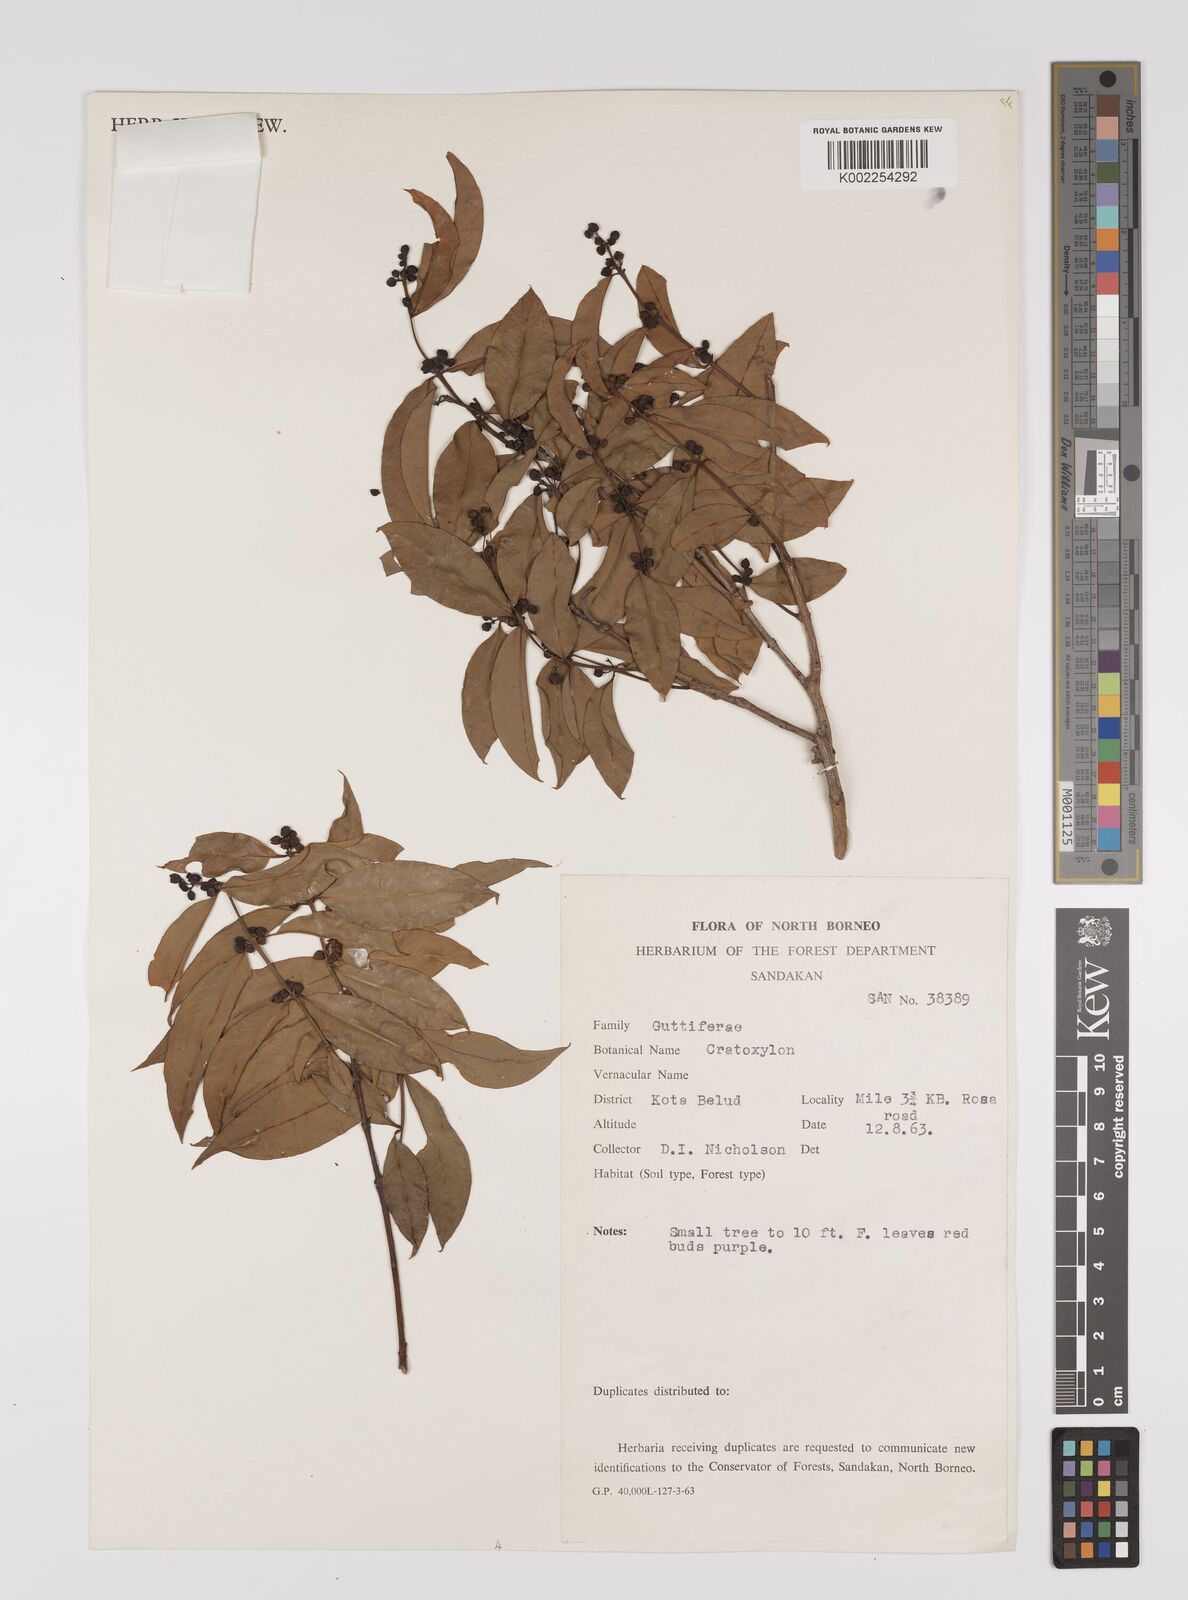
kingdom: Plantae
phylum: Tracheophyta
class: Magnoliopsida
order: Malpighiales
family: Hypericaceae
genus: Cratoxylum
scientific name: Cratoxylum
